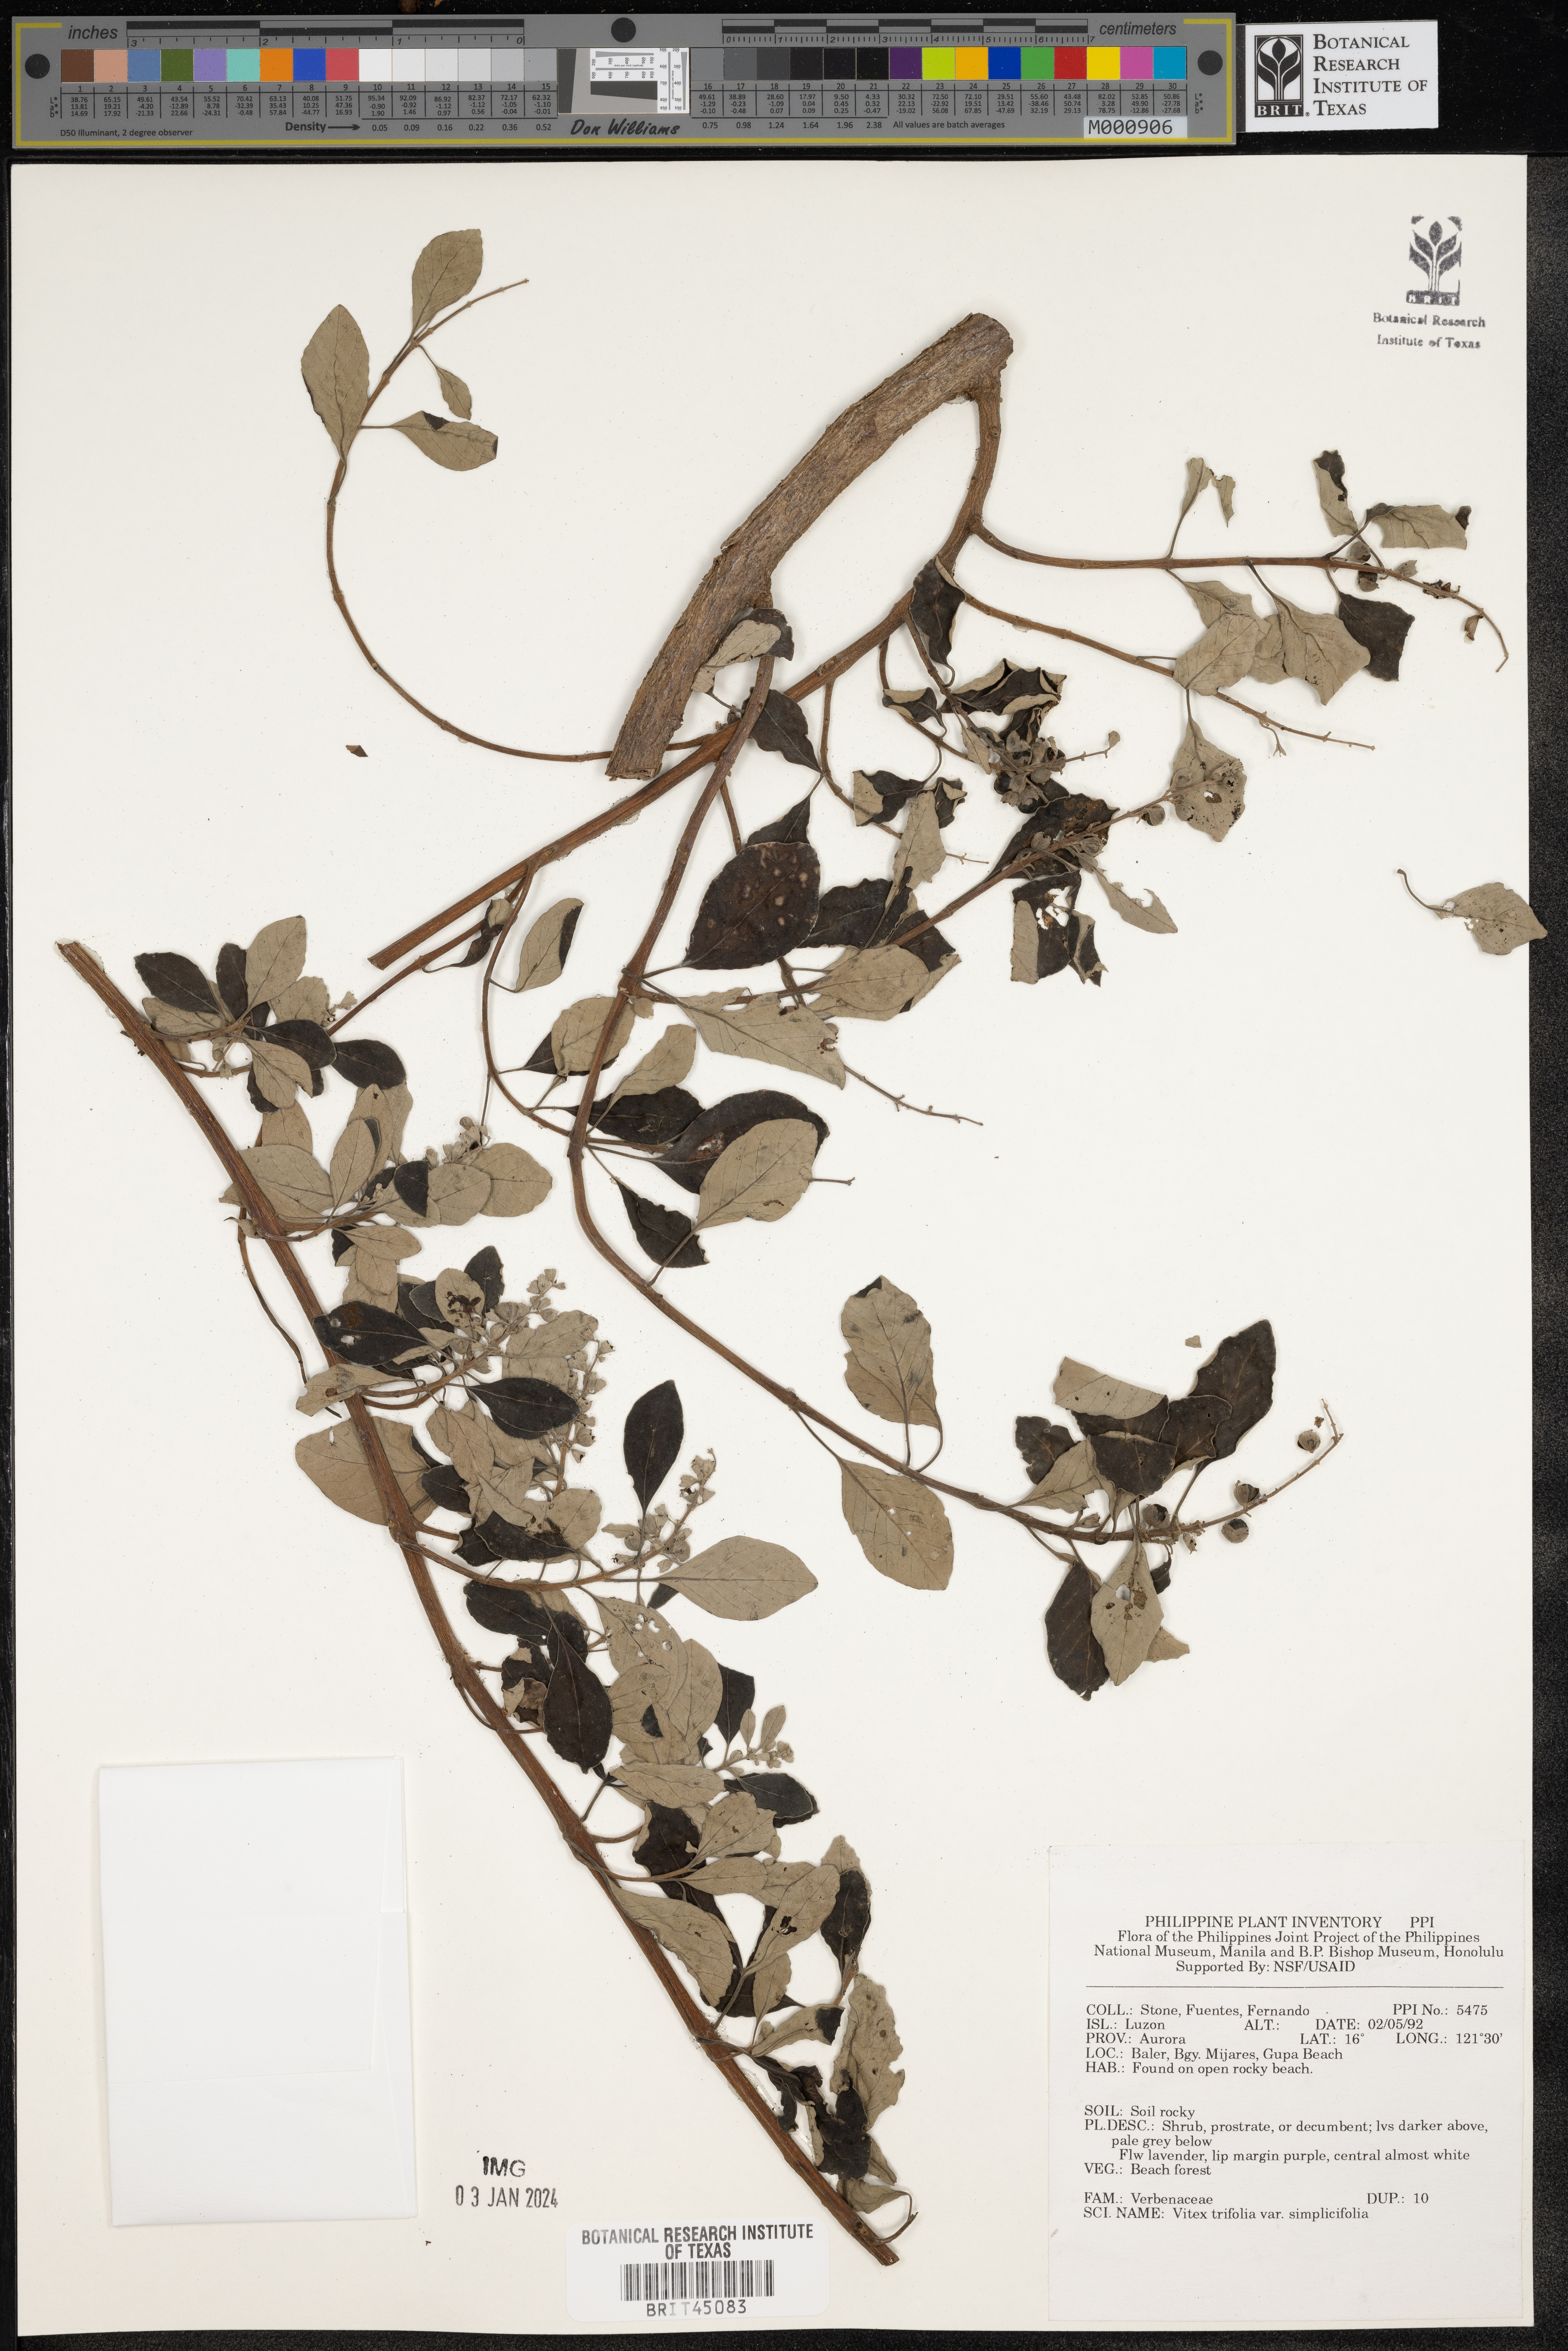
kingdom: Plantae
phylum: Tracheophyta
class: Magnoliopsida
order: Lamiales
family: Lamiaceae
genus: Vitex
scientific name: Vitex trifolia
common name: Simpleleaf chastetree
